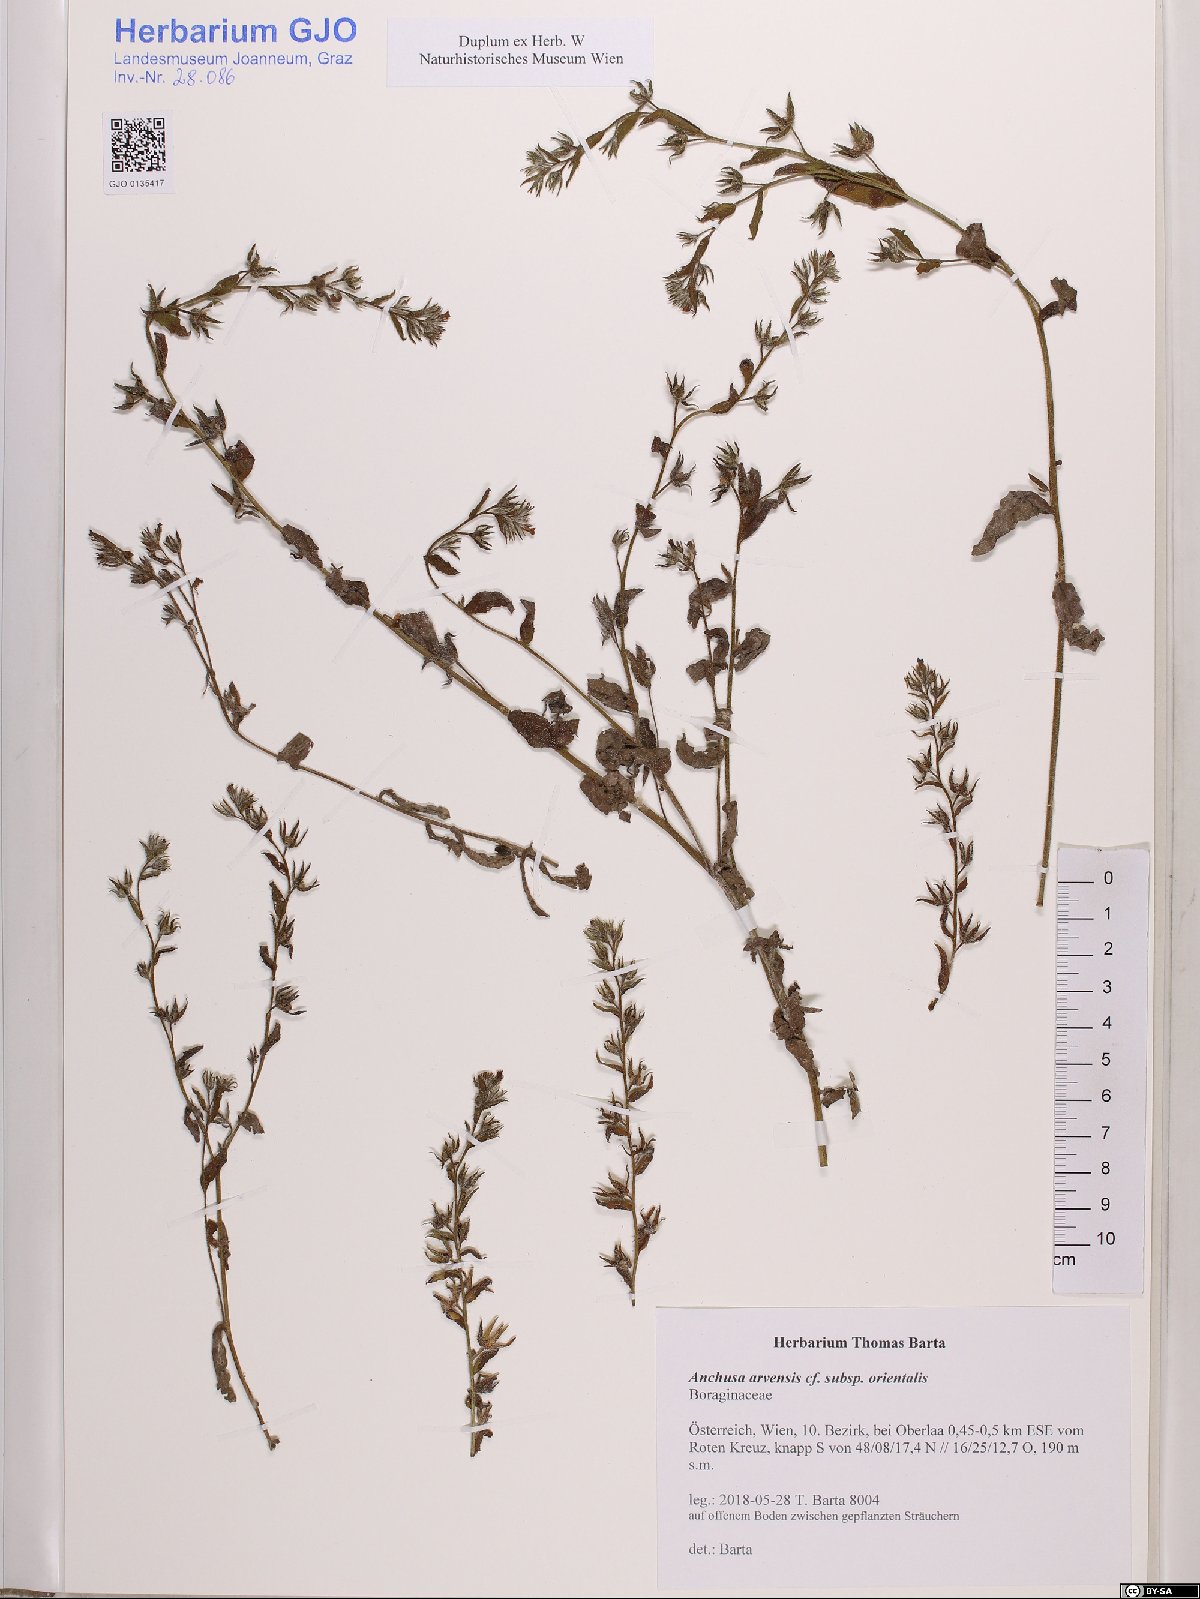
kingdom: Plantae
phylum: Tracheophyta
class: Magnoliopsida
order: Boraginales
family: Boraginaceae
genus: Lycopsis
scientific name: Lycopsis arvensis
